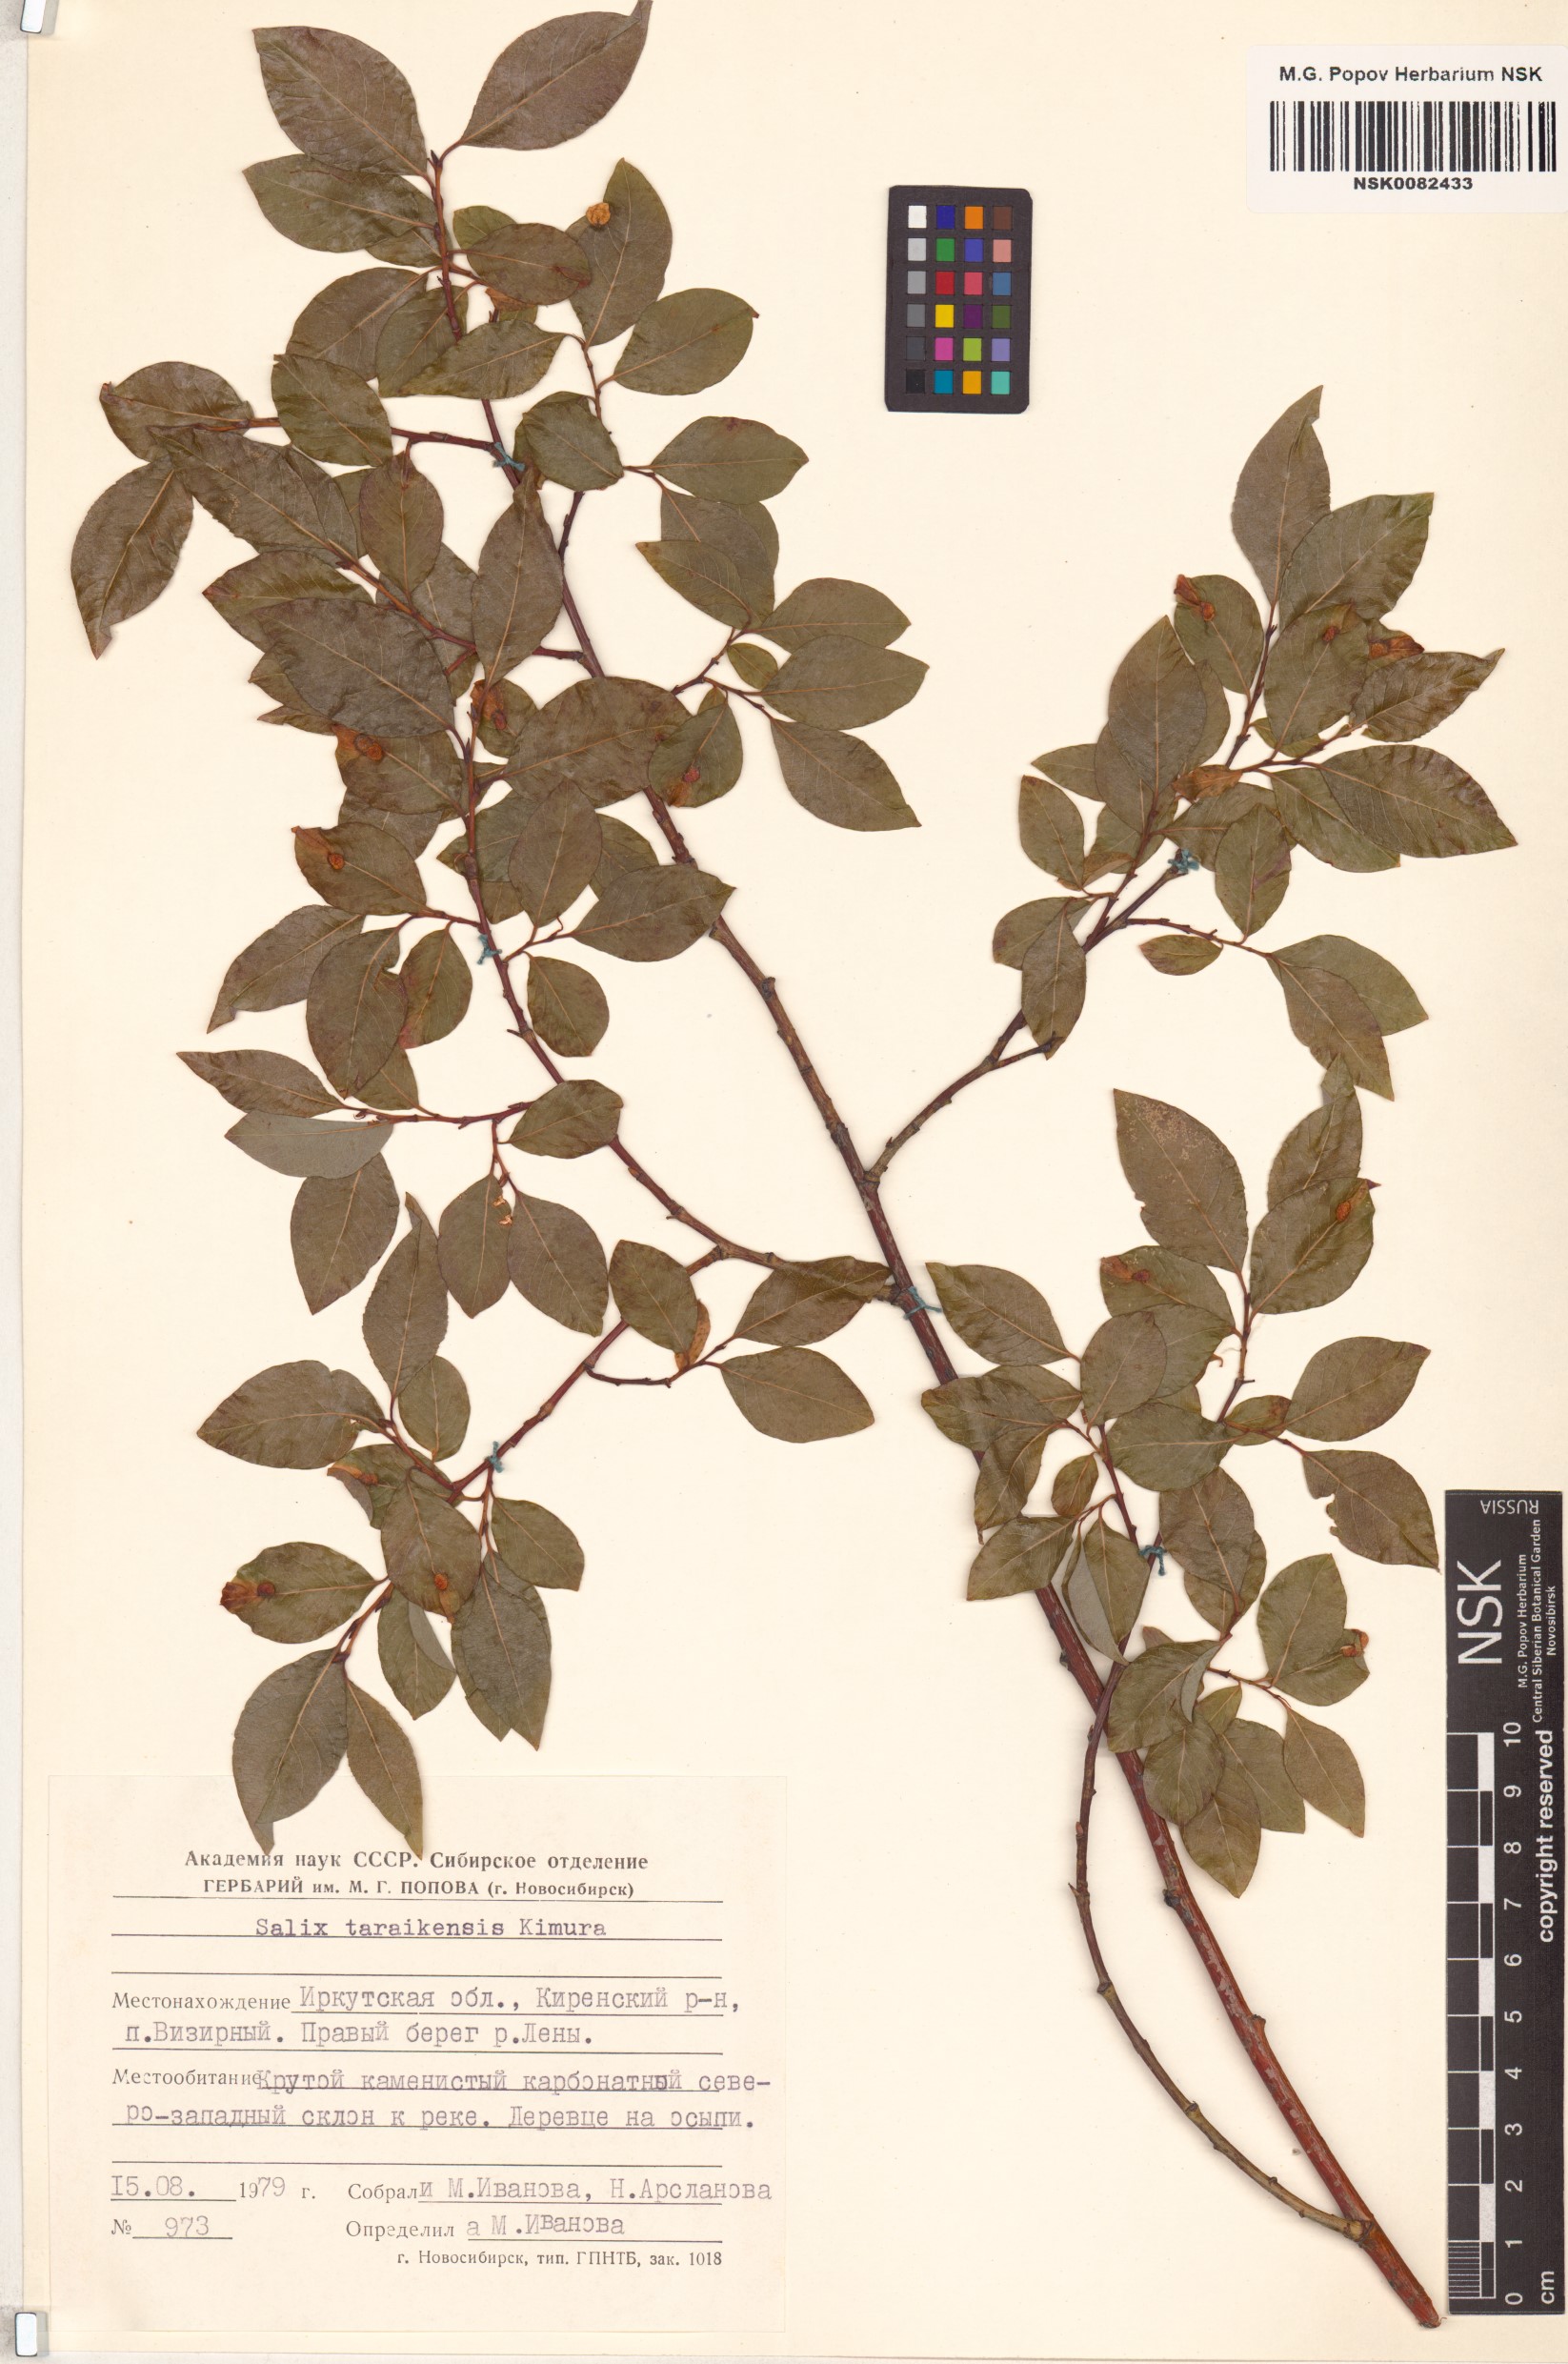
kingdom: Plantae
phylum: Tracheophyta
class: Magnoliopsida
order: Malpighiales
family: Salicaceae
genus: Salix
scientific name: Salix taraikensis
